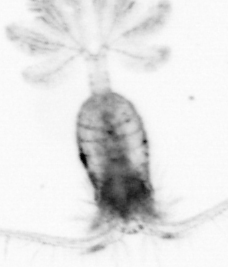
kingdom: Animalia
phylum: Arthropoda
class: Copepoda
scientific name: Copepoda
